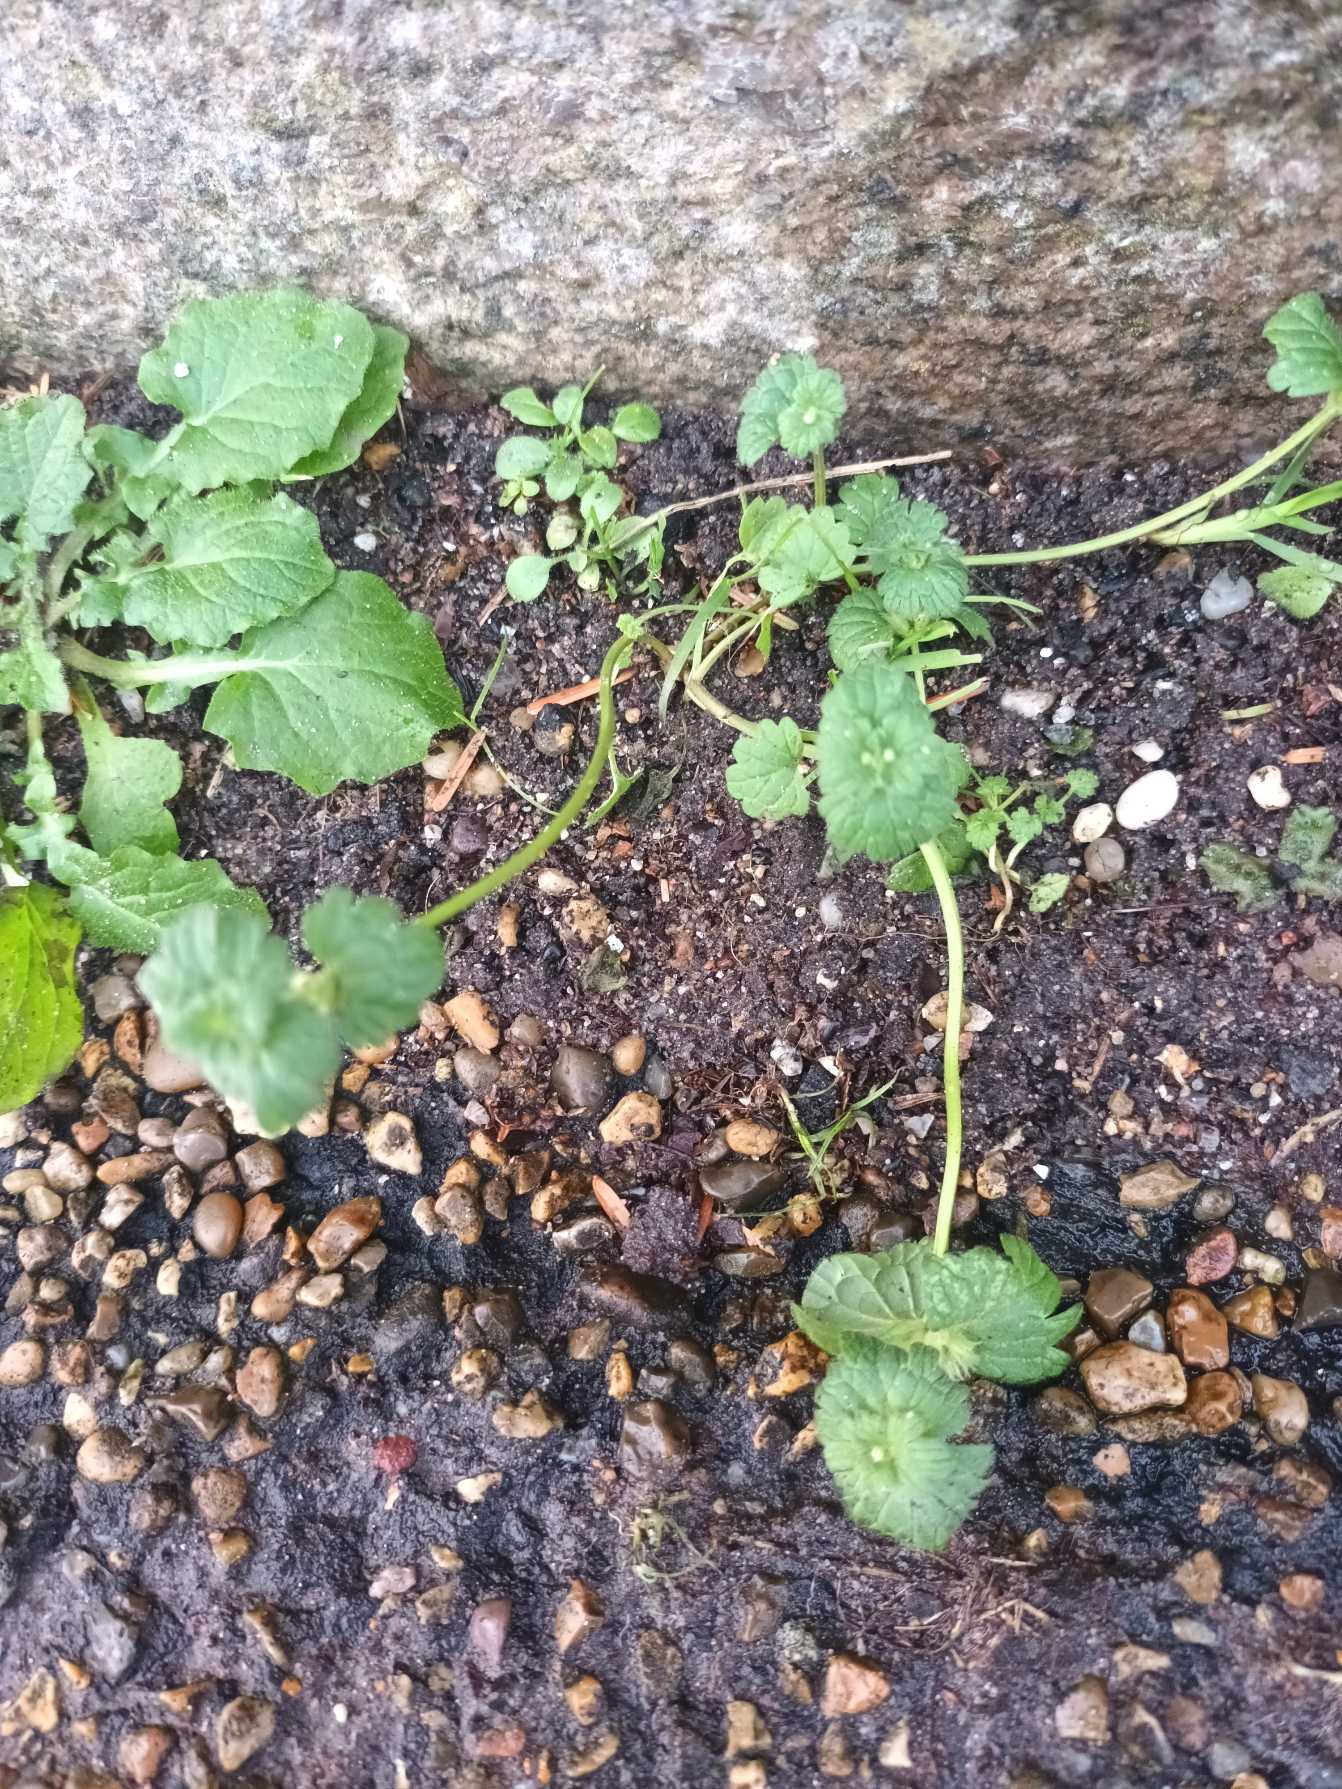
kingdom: Plantae
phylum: Tracheophyta
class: Magnoliopsida
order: Lamiales
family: Lamiaceae
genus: Lamium
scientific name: Lamium amplexicaule
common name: Liden tvetand
